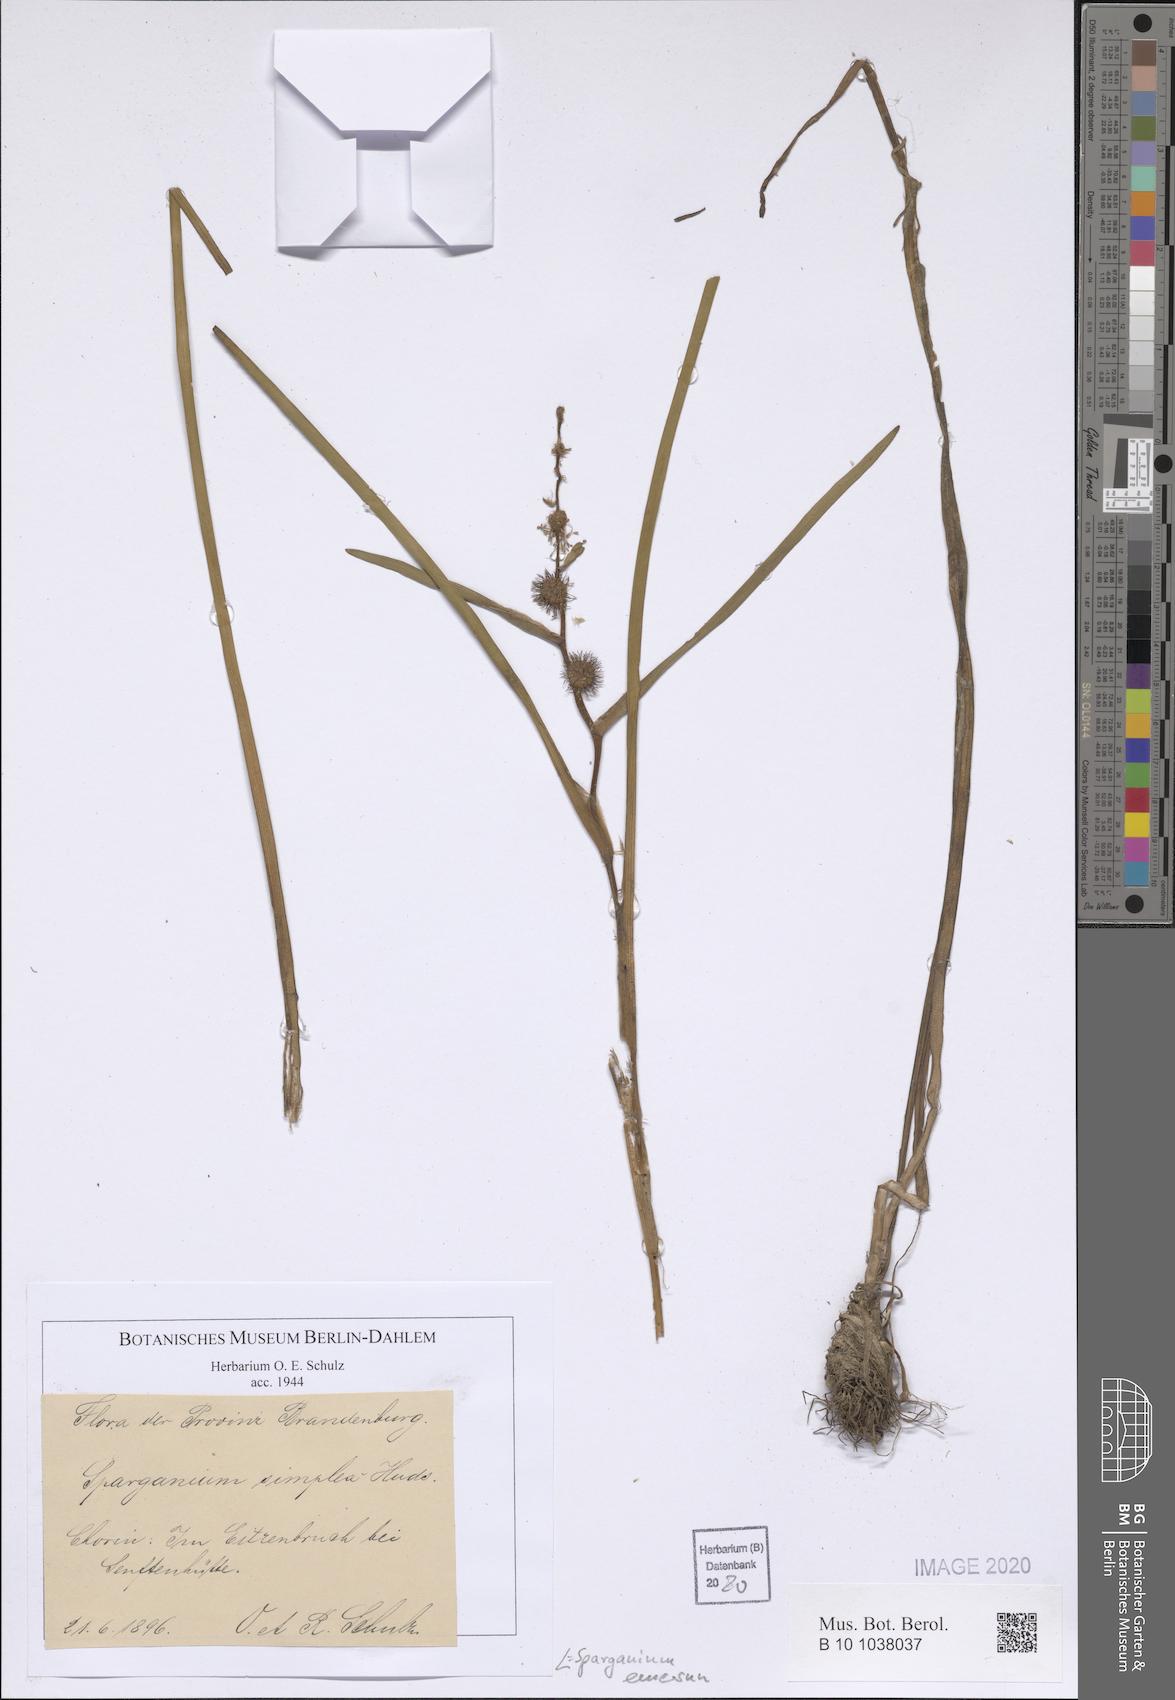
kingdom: Plantae
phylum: Tracheophyta
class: Liliopsida
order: Poales
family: Typhaceae
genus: Sparganium
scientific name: Sparganium emersum
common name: Unbranched bur-reed
